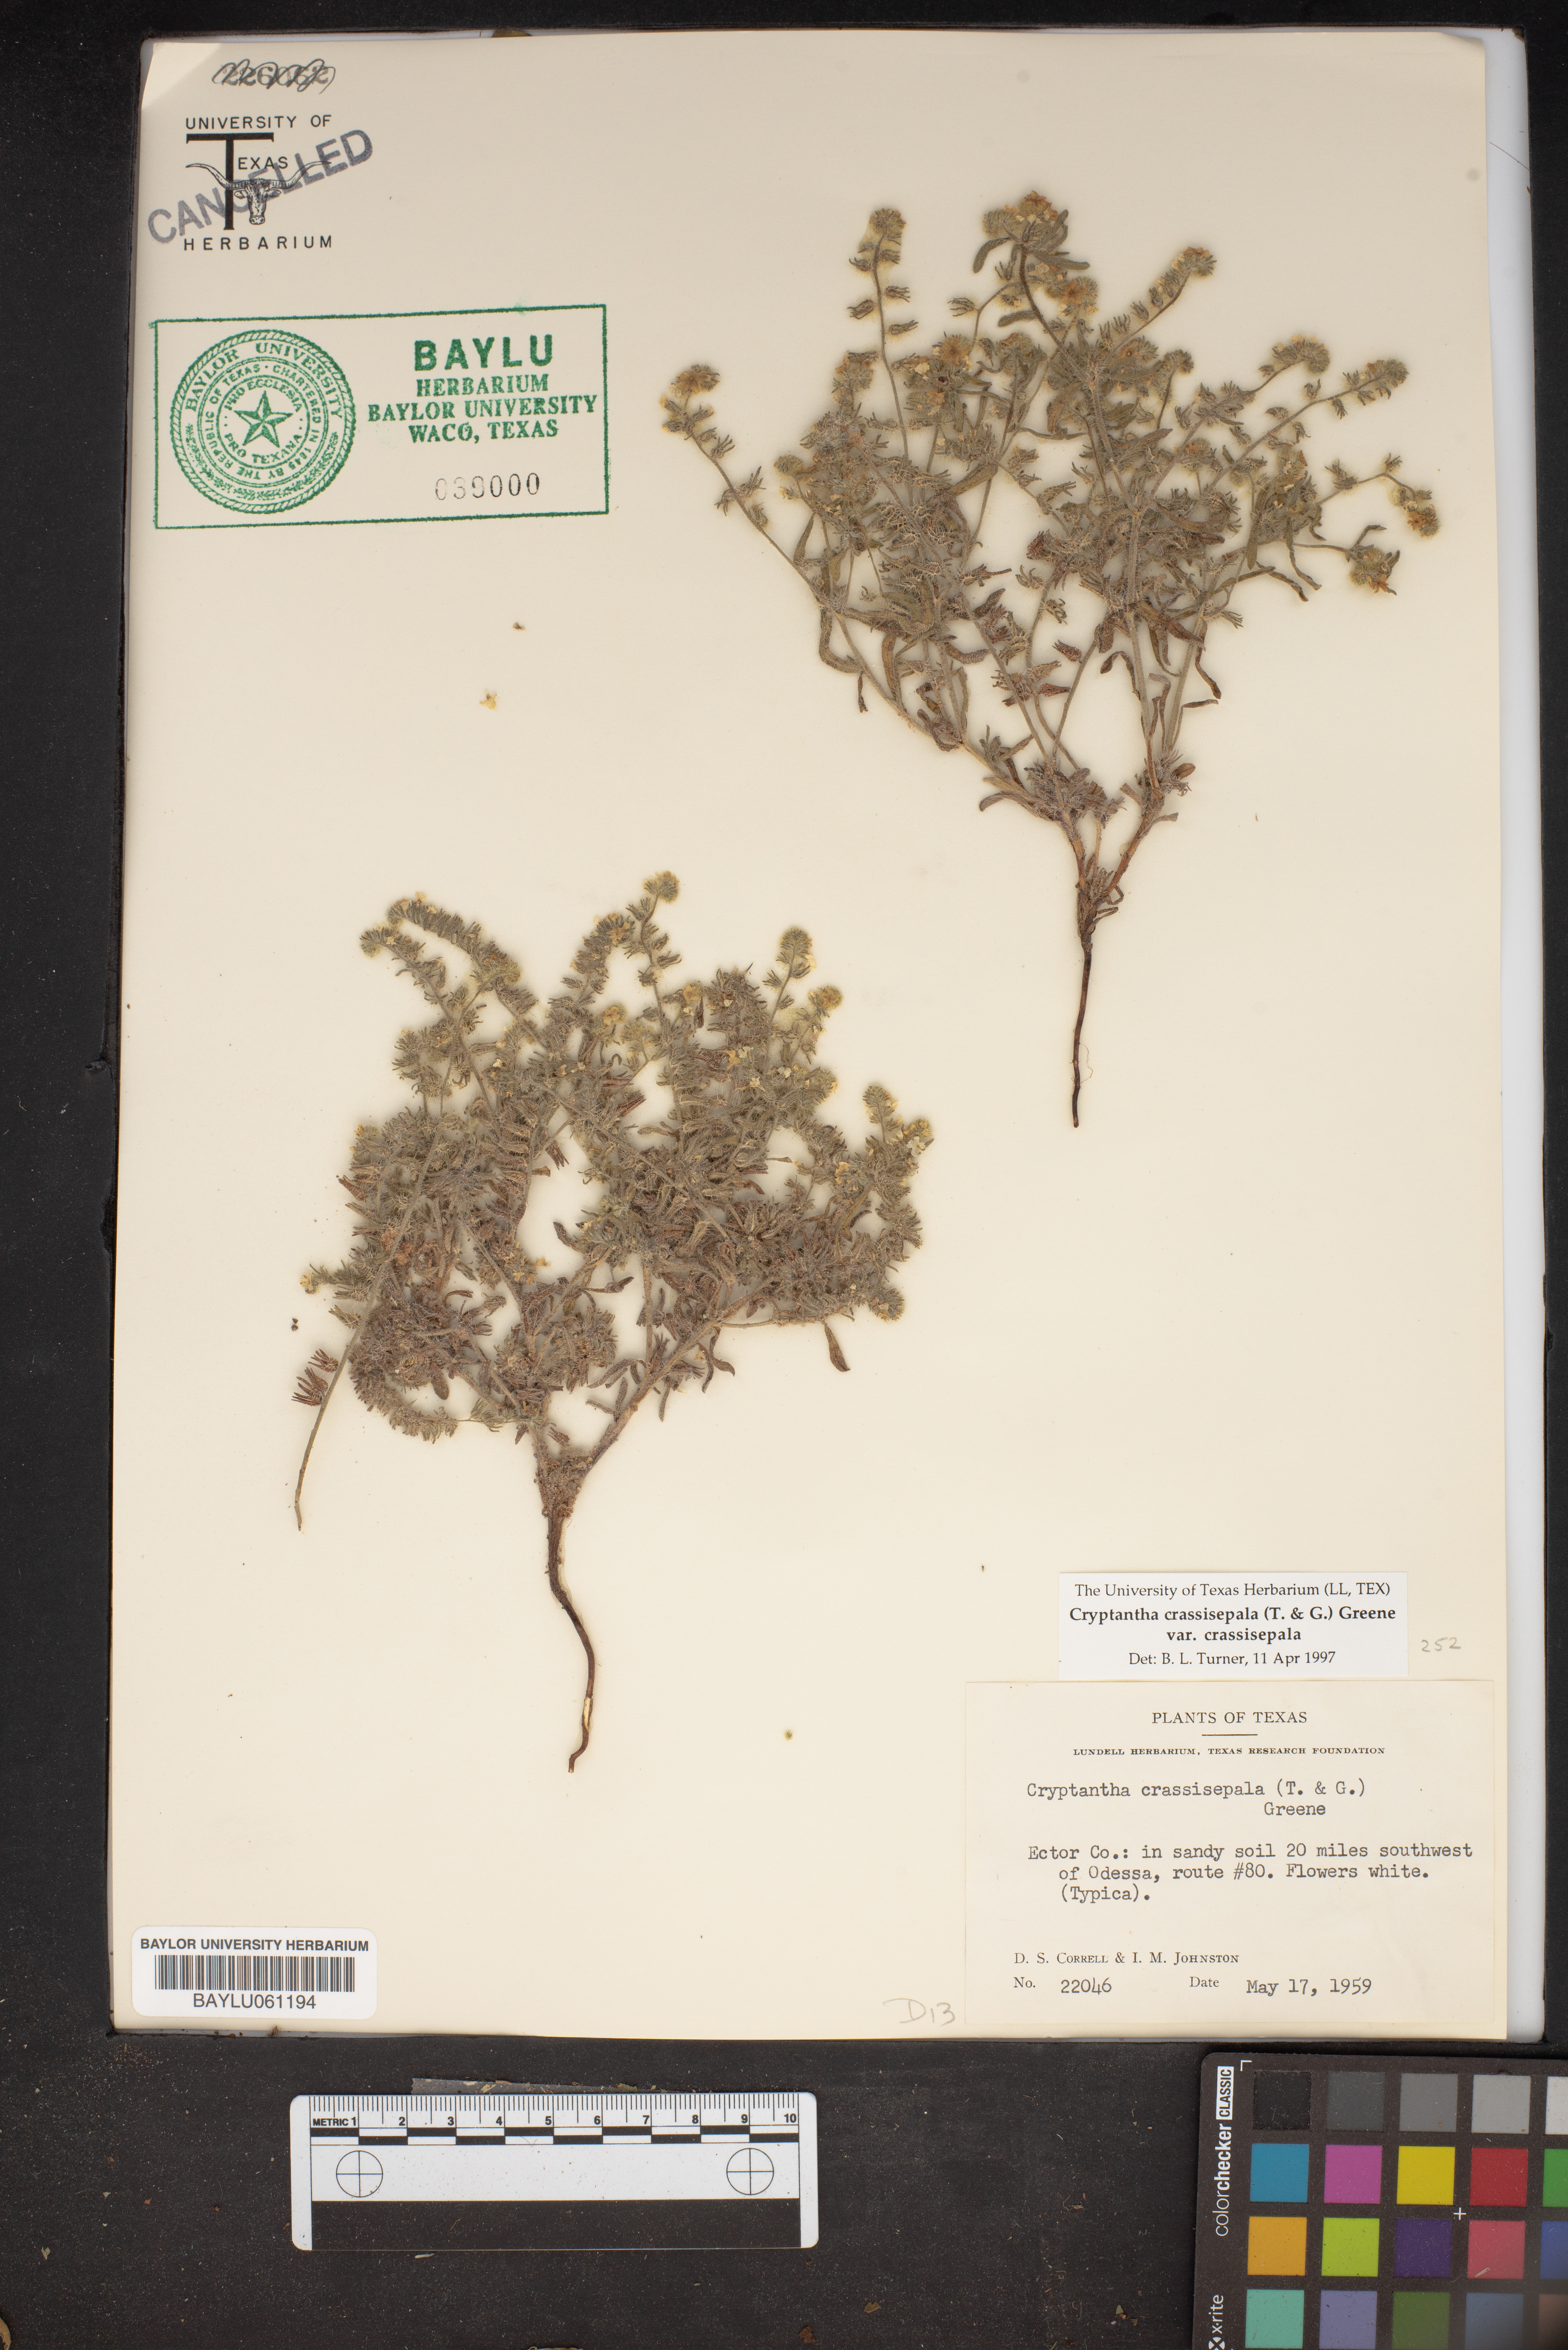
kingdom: Plantae
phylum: Tracheophyta
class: Magnoliopsida
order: Boraginales
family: Boraginaceae
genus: Cryptantha
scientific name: Cryptantha crassisepala
